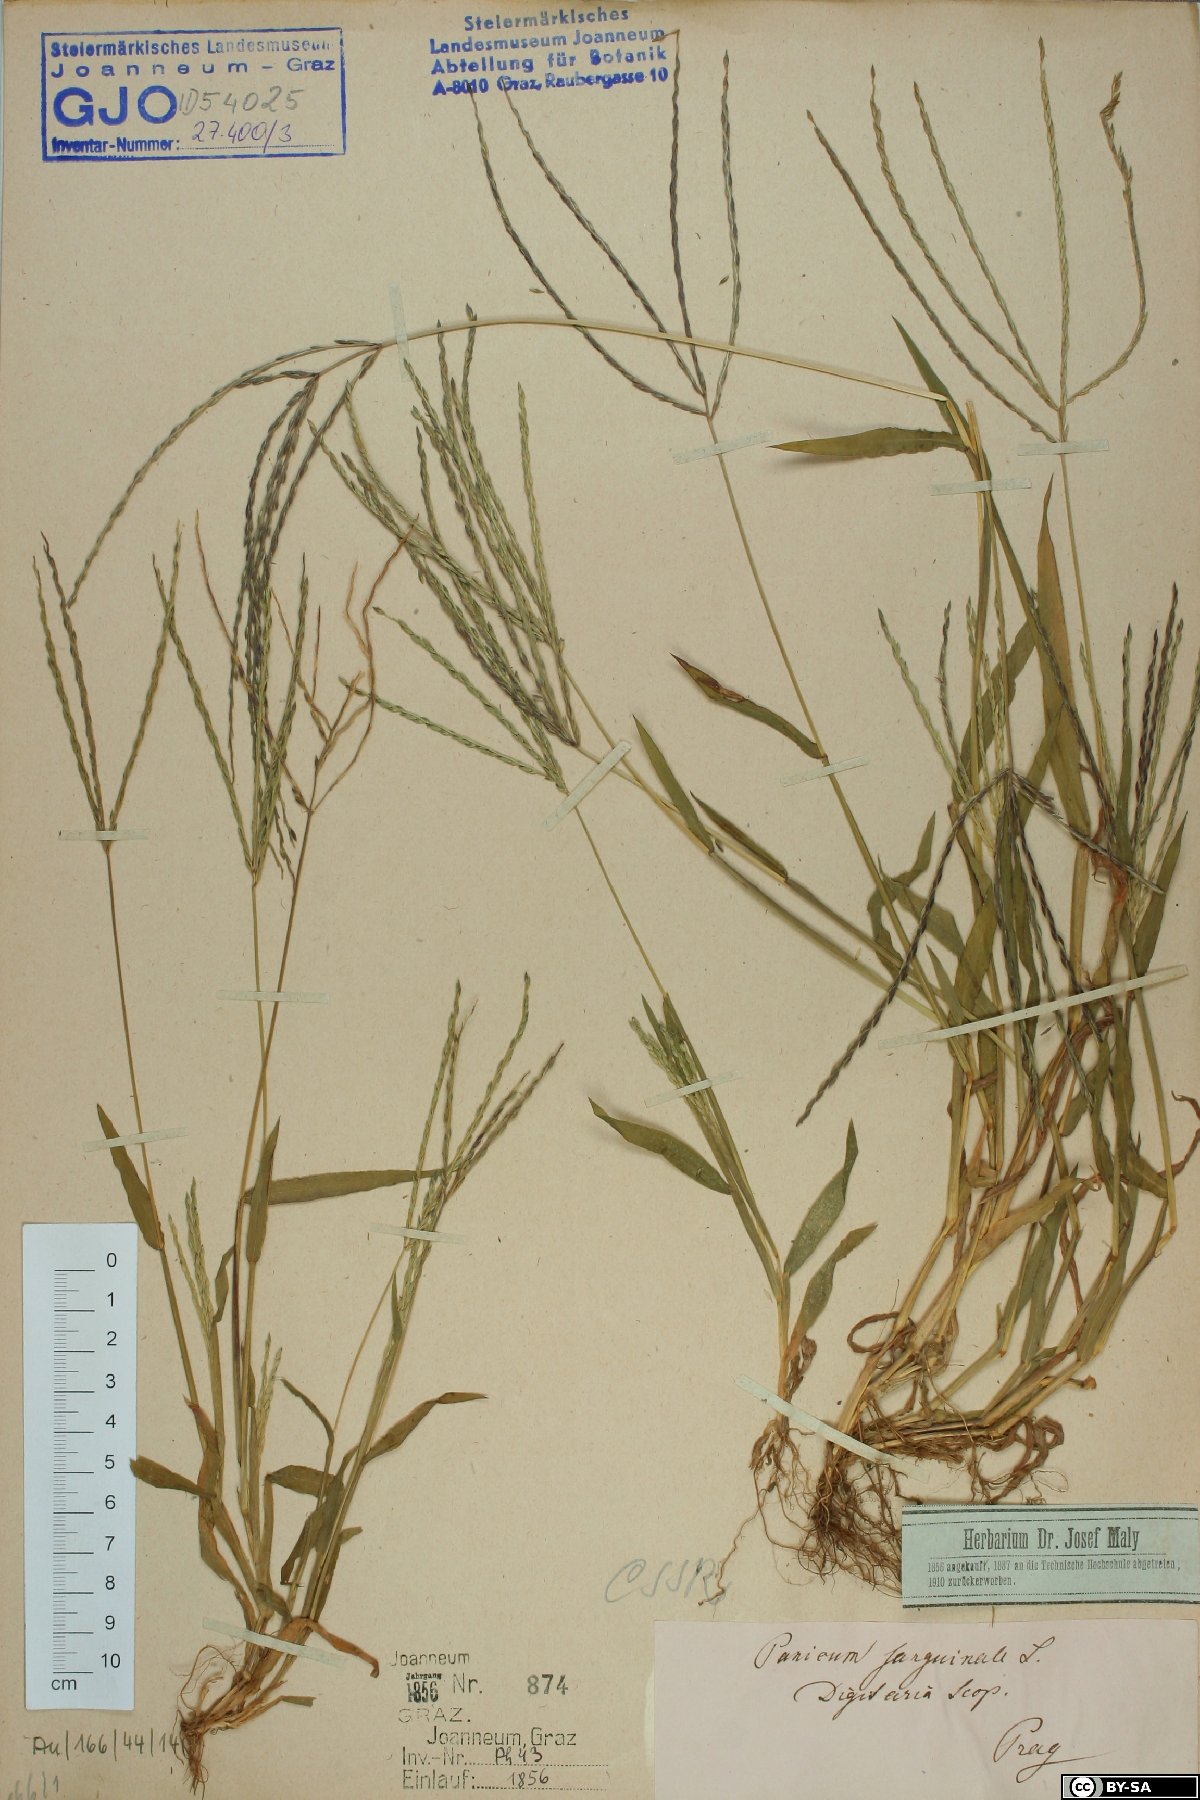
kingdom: Plantae
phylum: Tracheophyta
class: Liliopsida
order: Poales
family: Poaceae
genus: Digitaria
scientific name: Digitaria sanguinalis
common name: Hairy crabgrass
